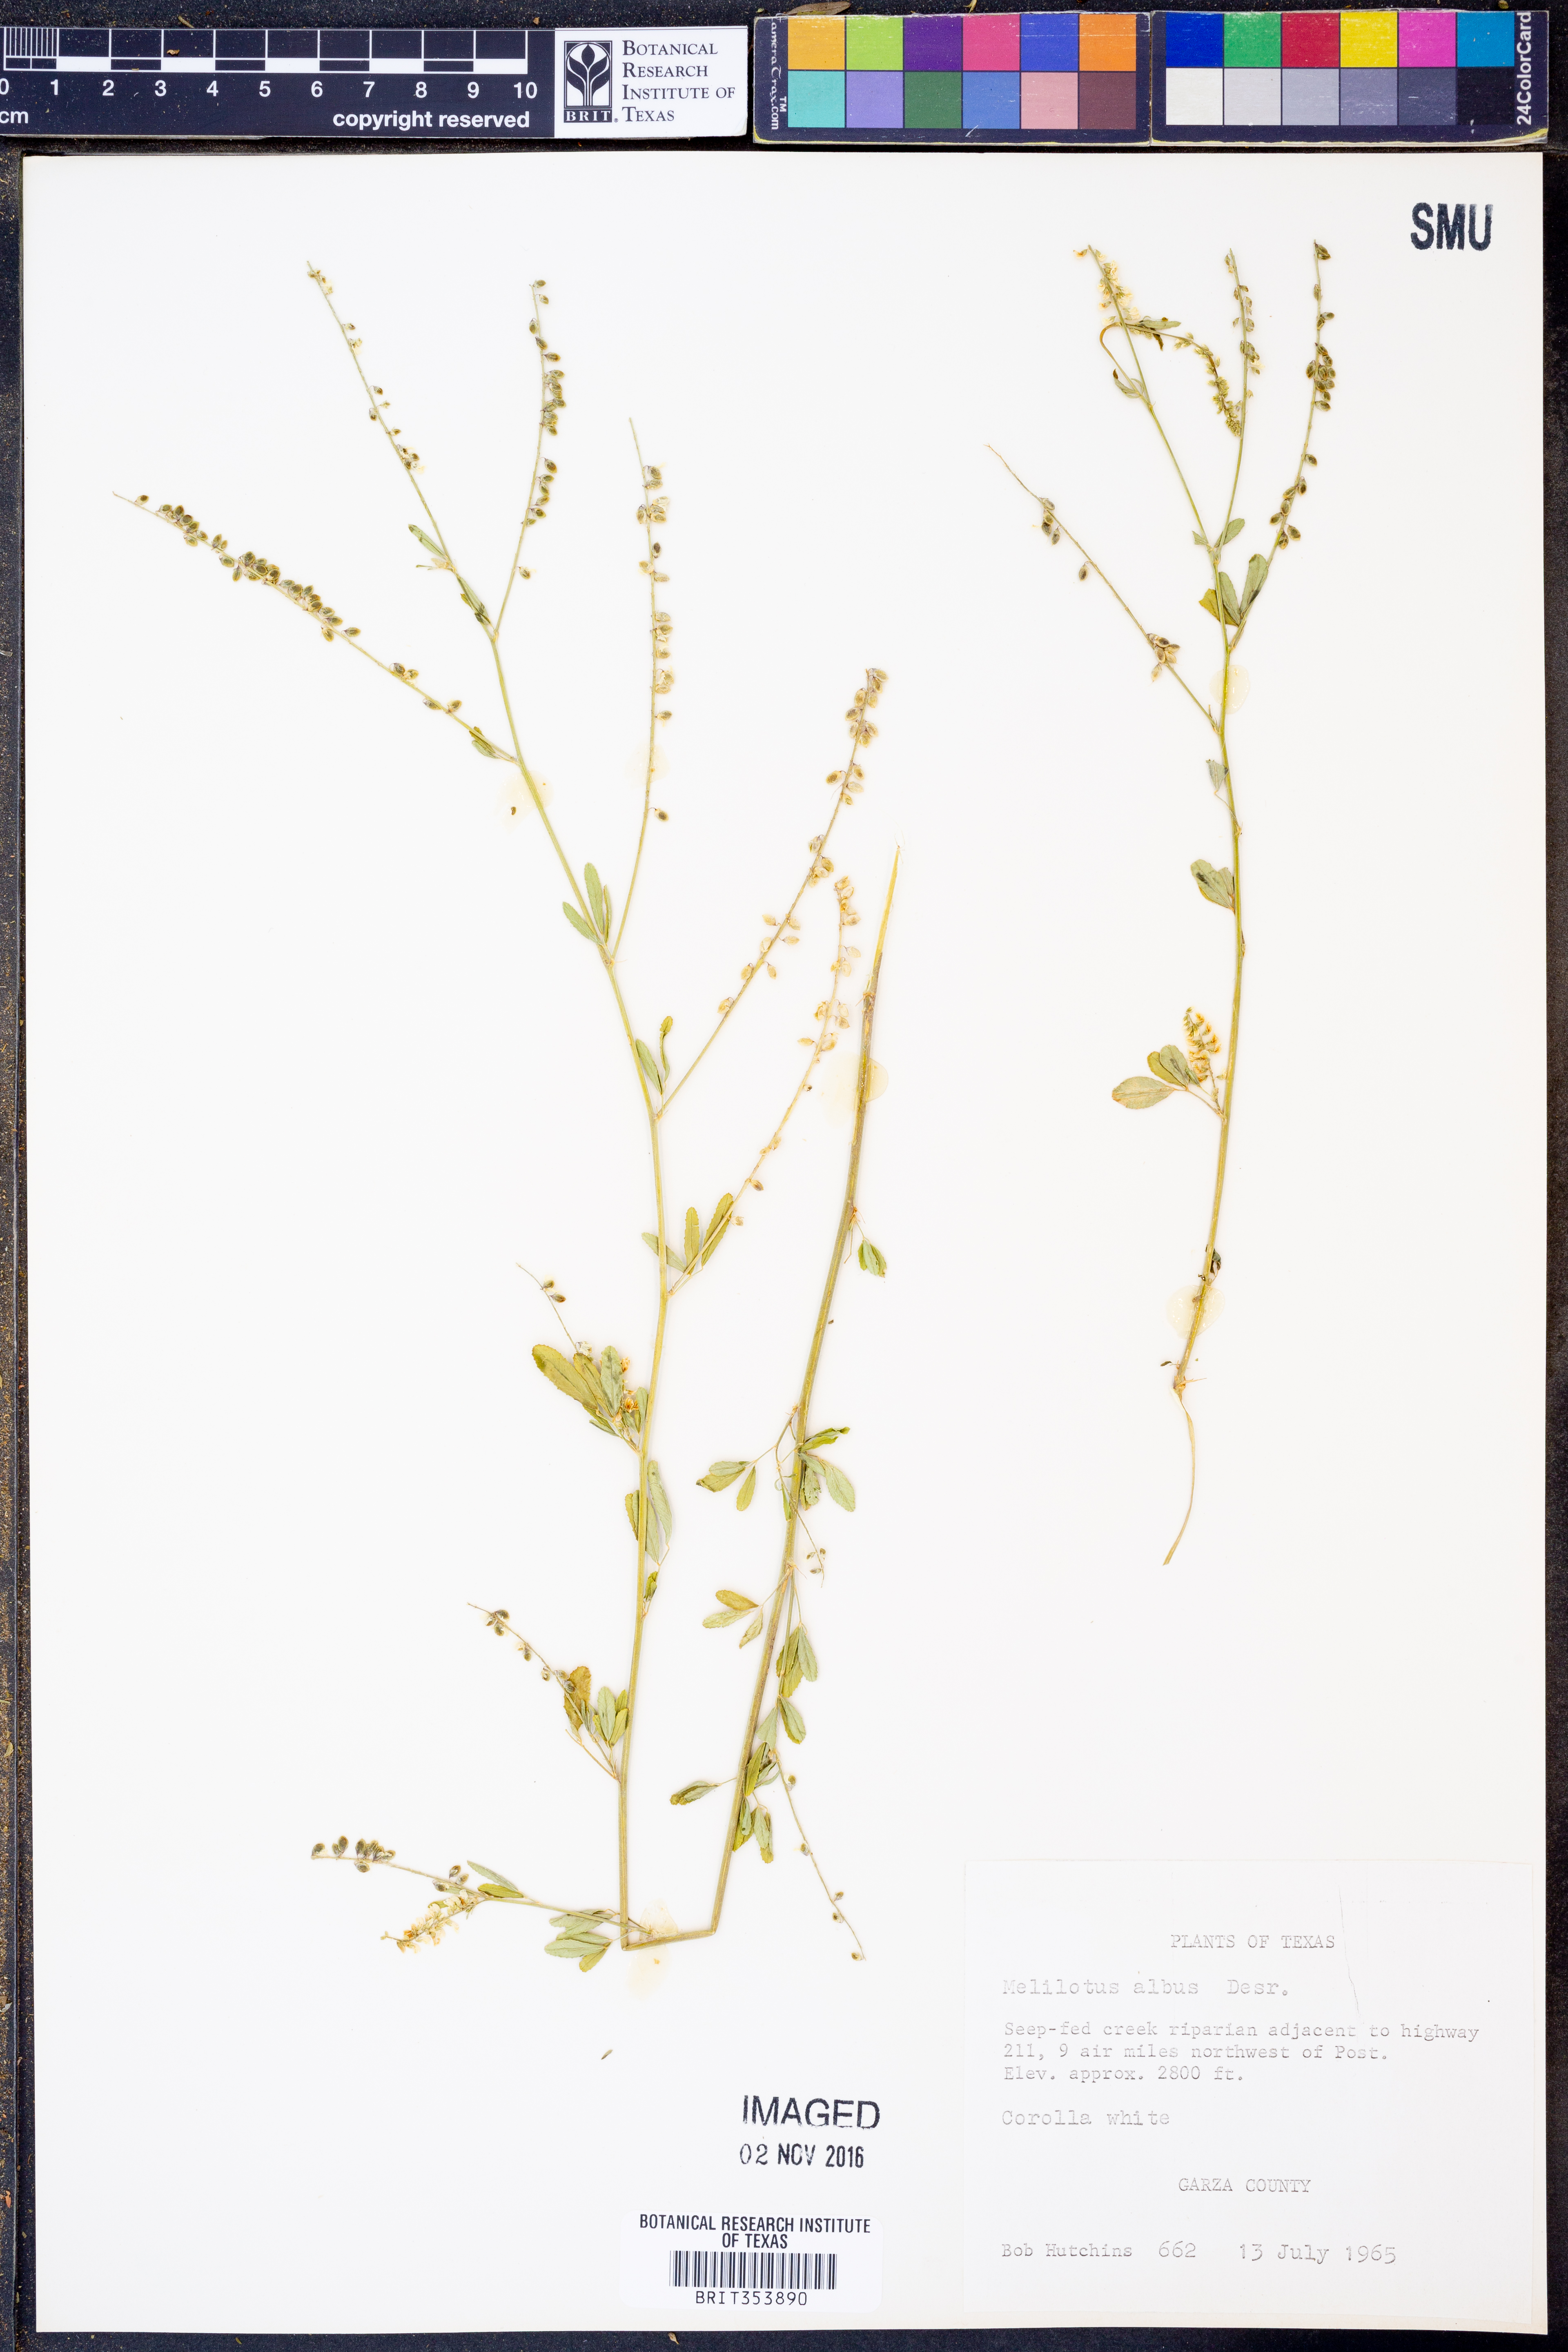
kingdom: Plantae
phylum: Tracheophyta
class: Magnoliopsida
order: Fabales
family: Fabaceae
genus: Melilotus
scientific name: Melilotus albus
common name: White melilot
